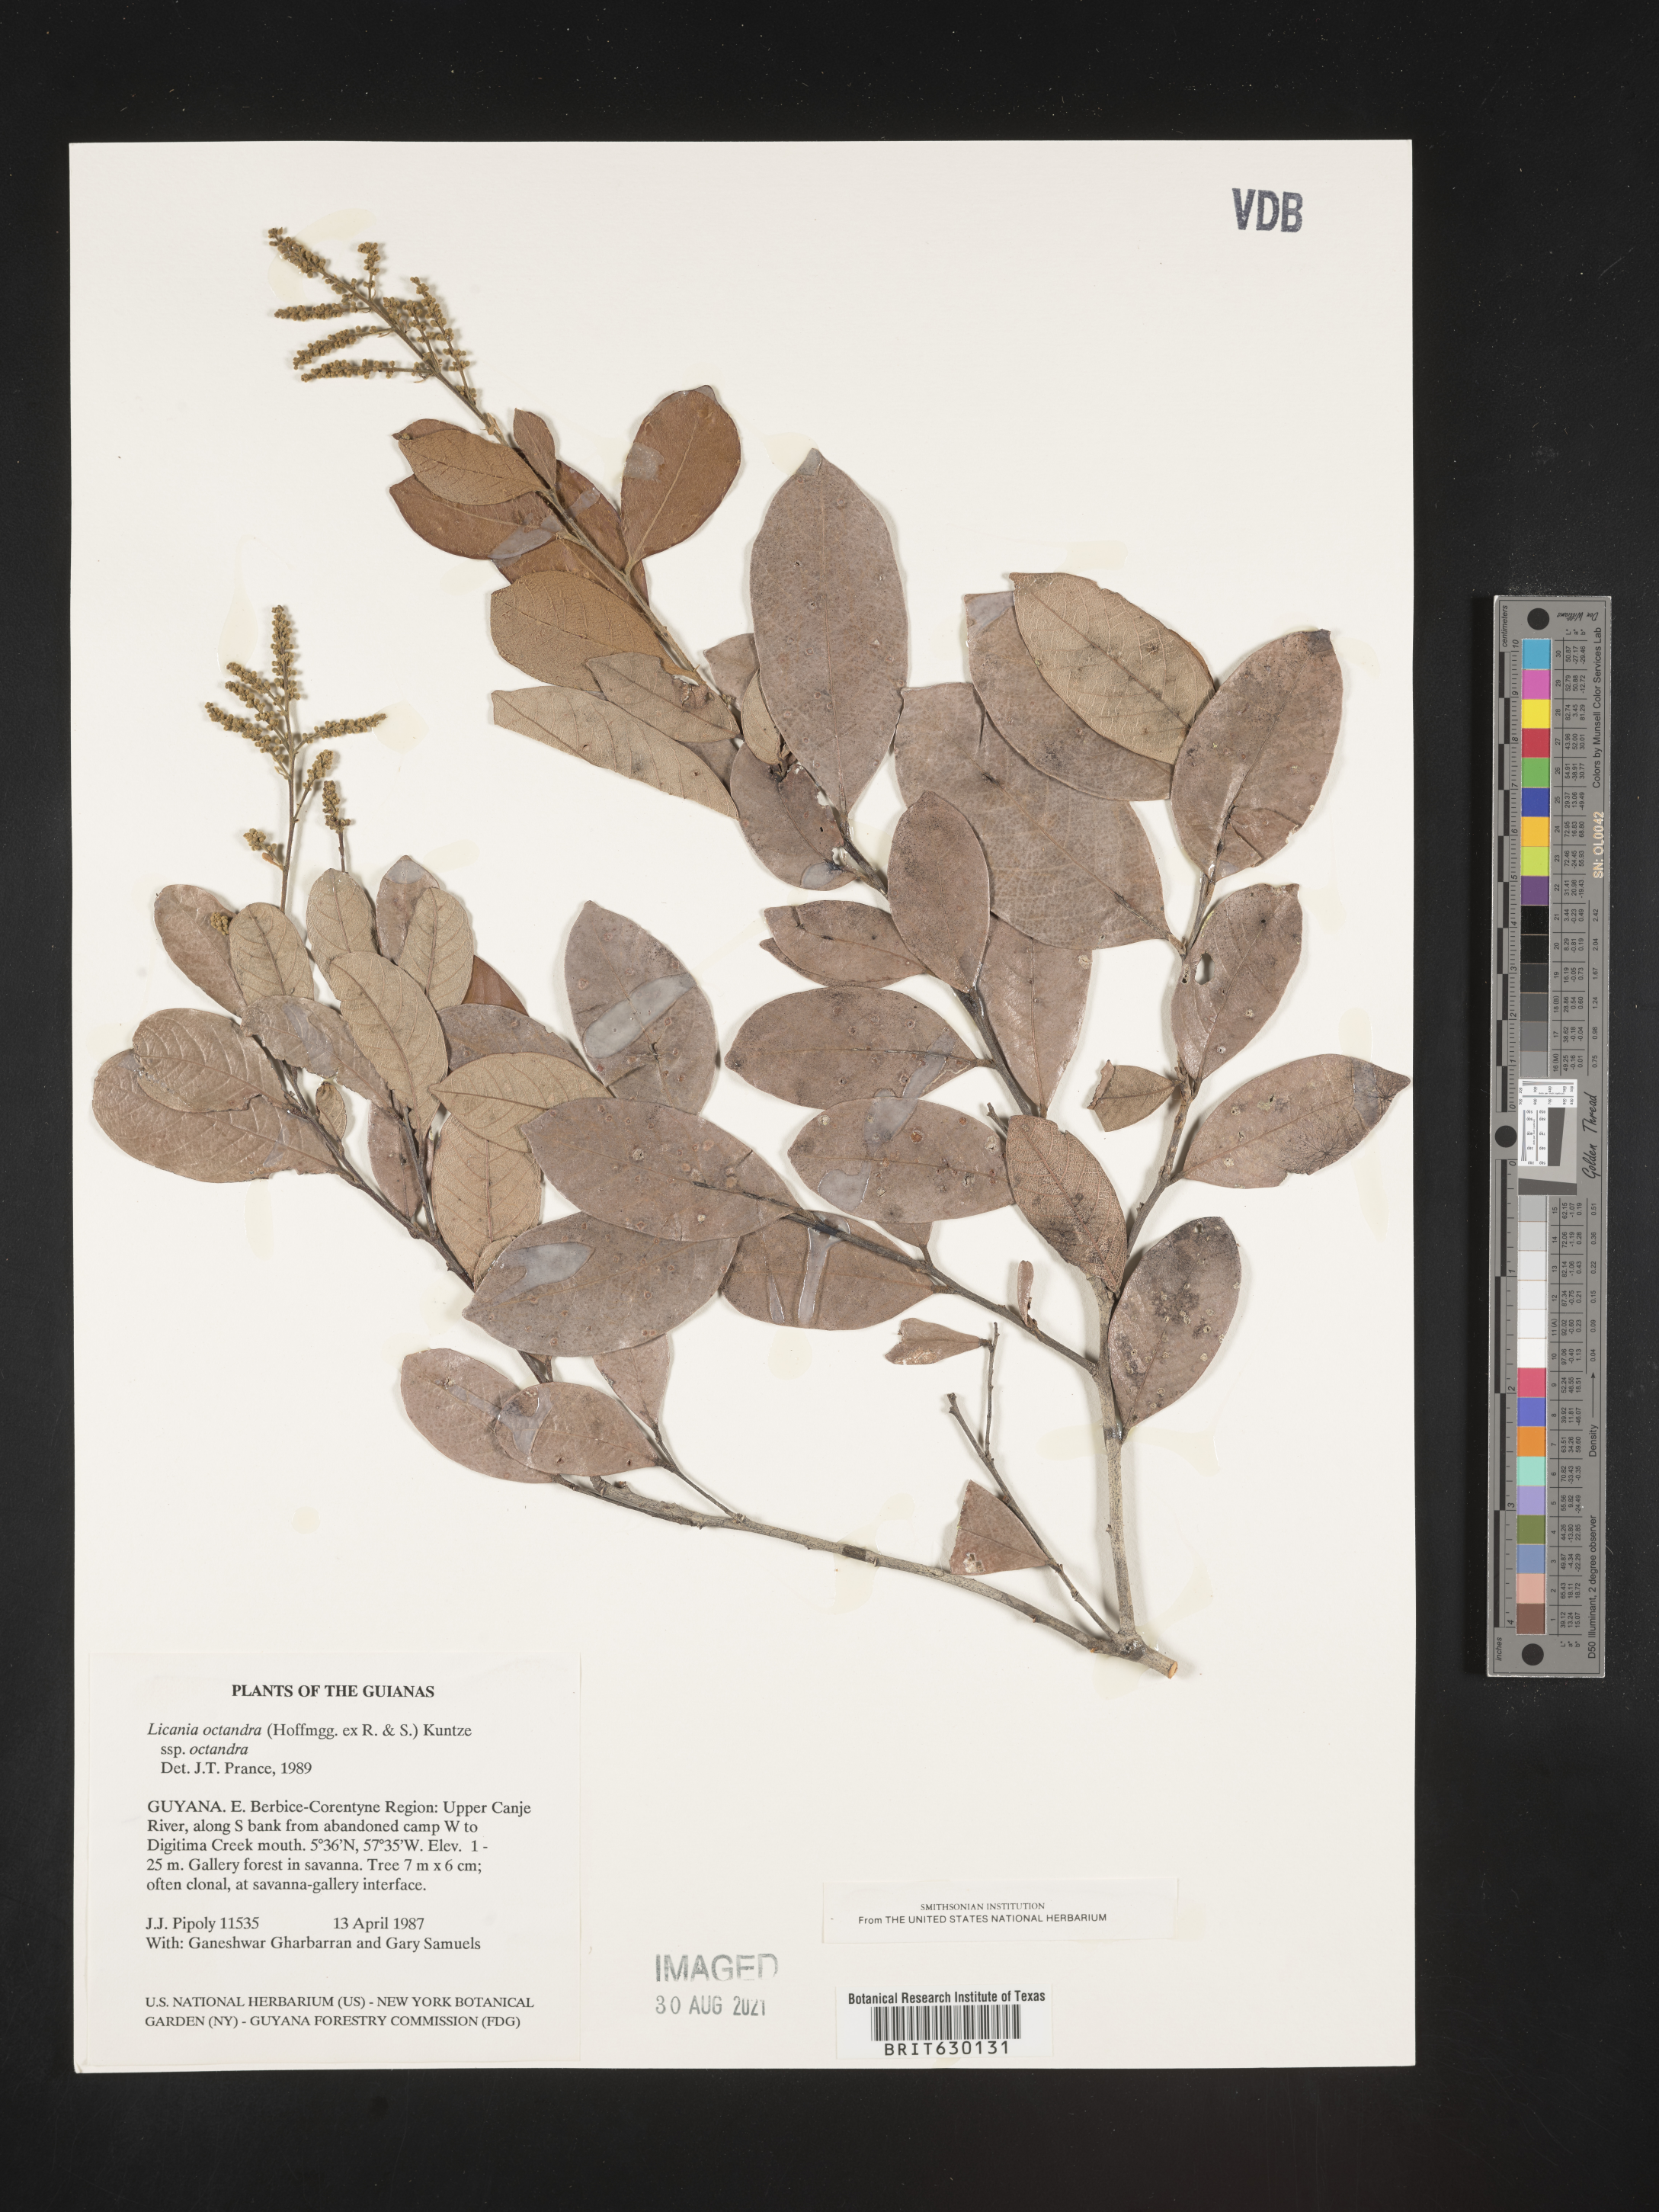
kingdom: Plantae
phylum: Tracheophyta
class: Magnoliopsida
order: Malpighiales
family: Chrysobalanaceae
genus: Leptobalanus
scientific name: Leptobalanus octandrus
